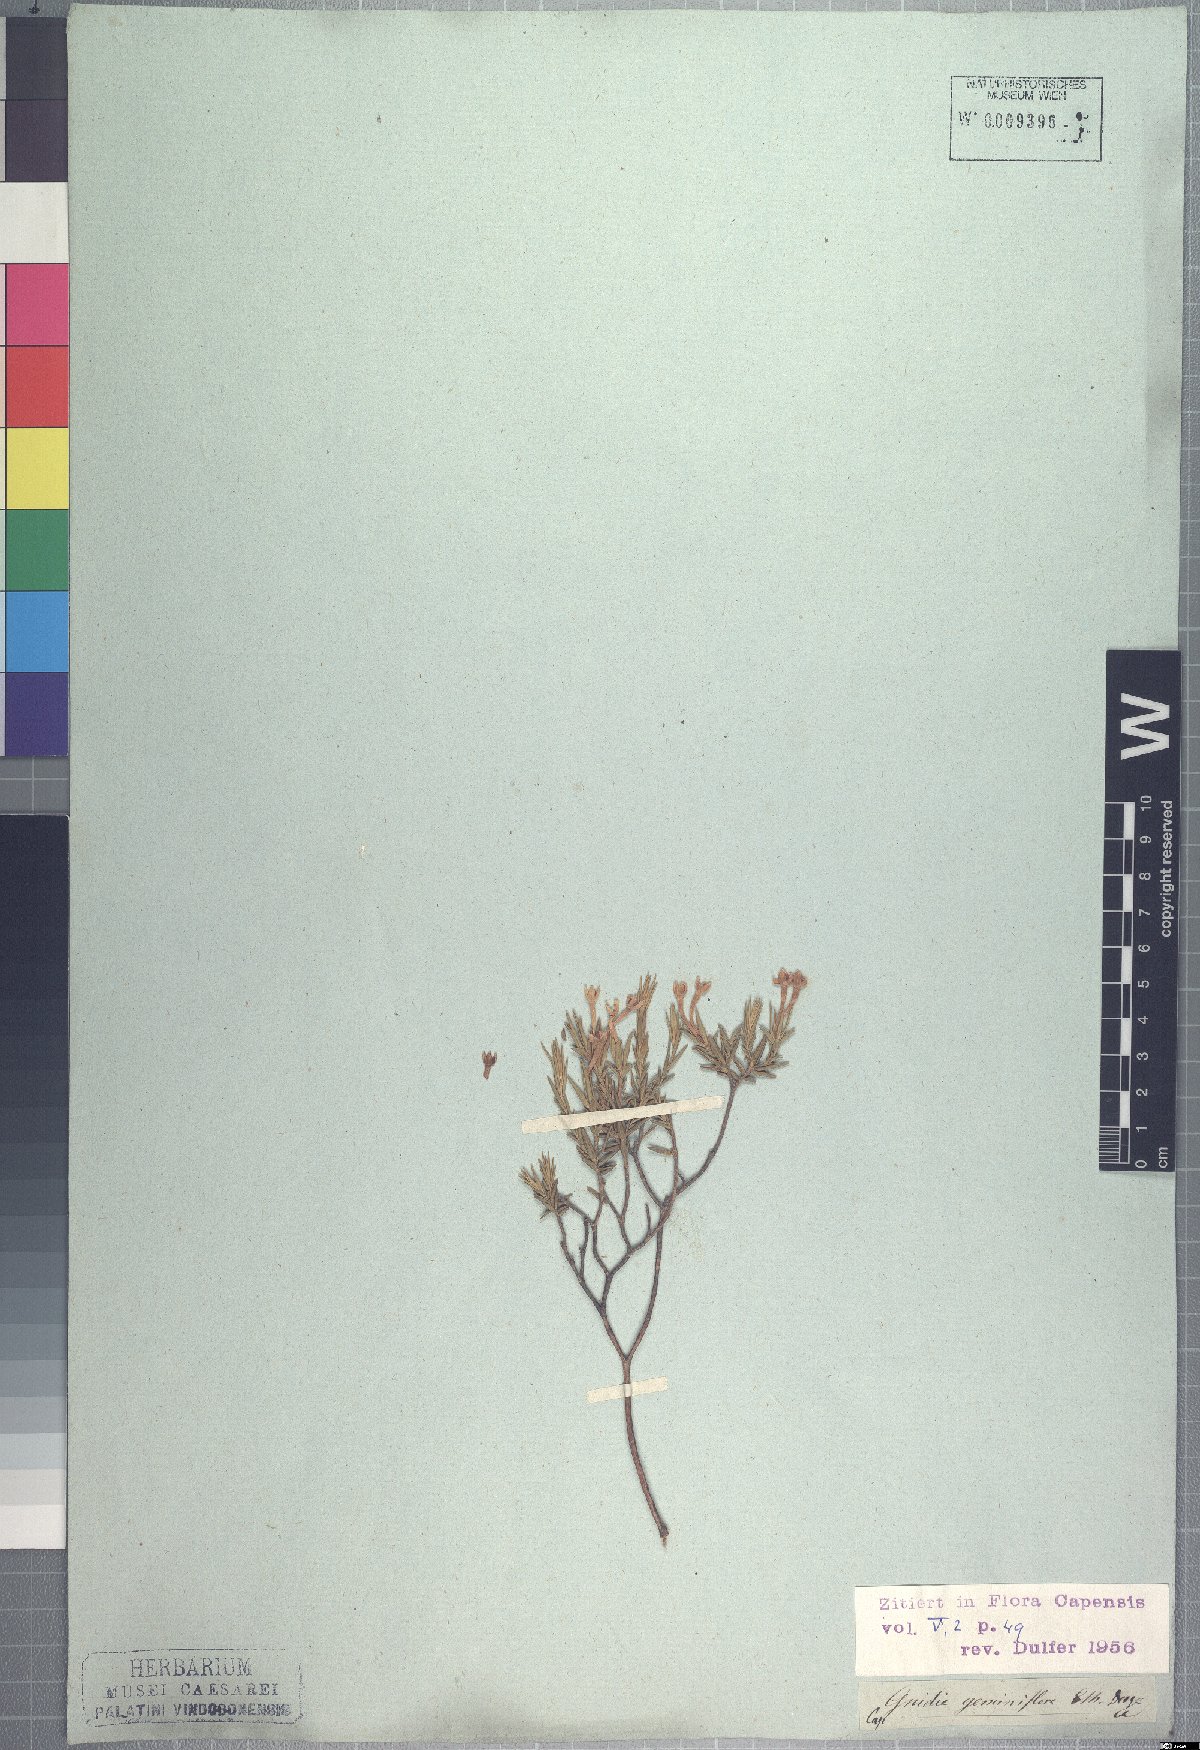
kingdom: Plantae
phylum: Tracheophyta
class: Magnoliopsida
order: Malvales
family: Thymelaeaceae
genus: Gnidia
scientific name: Gnidia geminiflora
